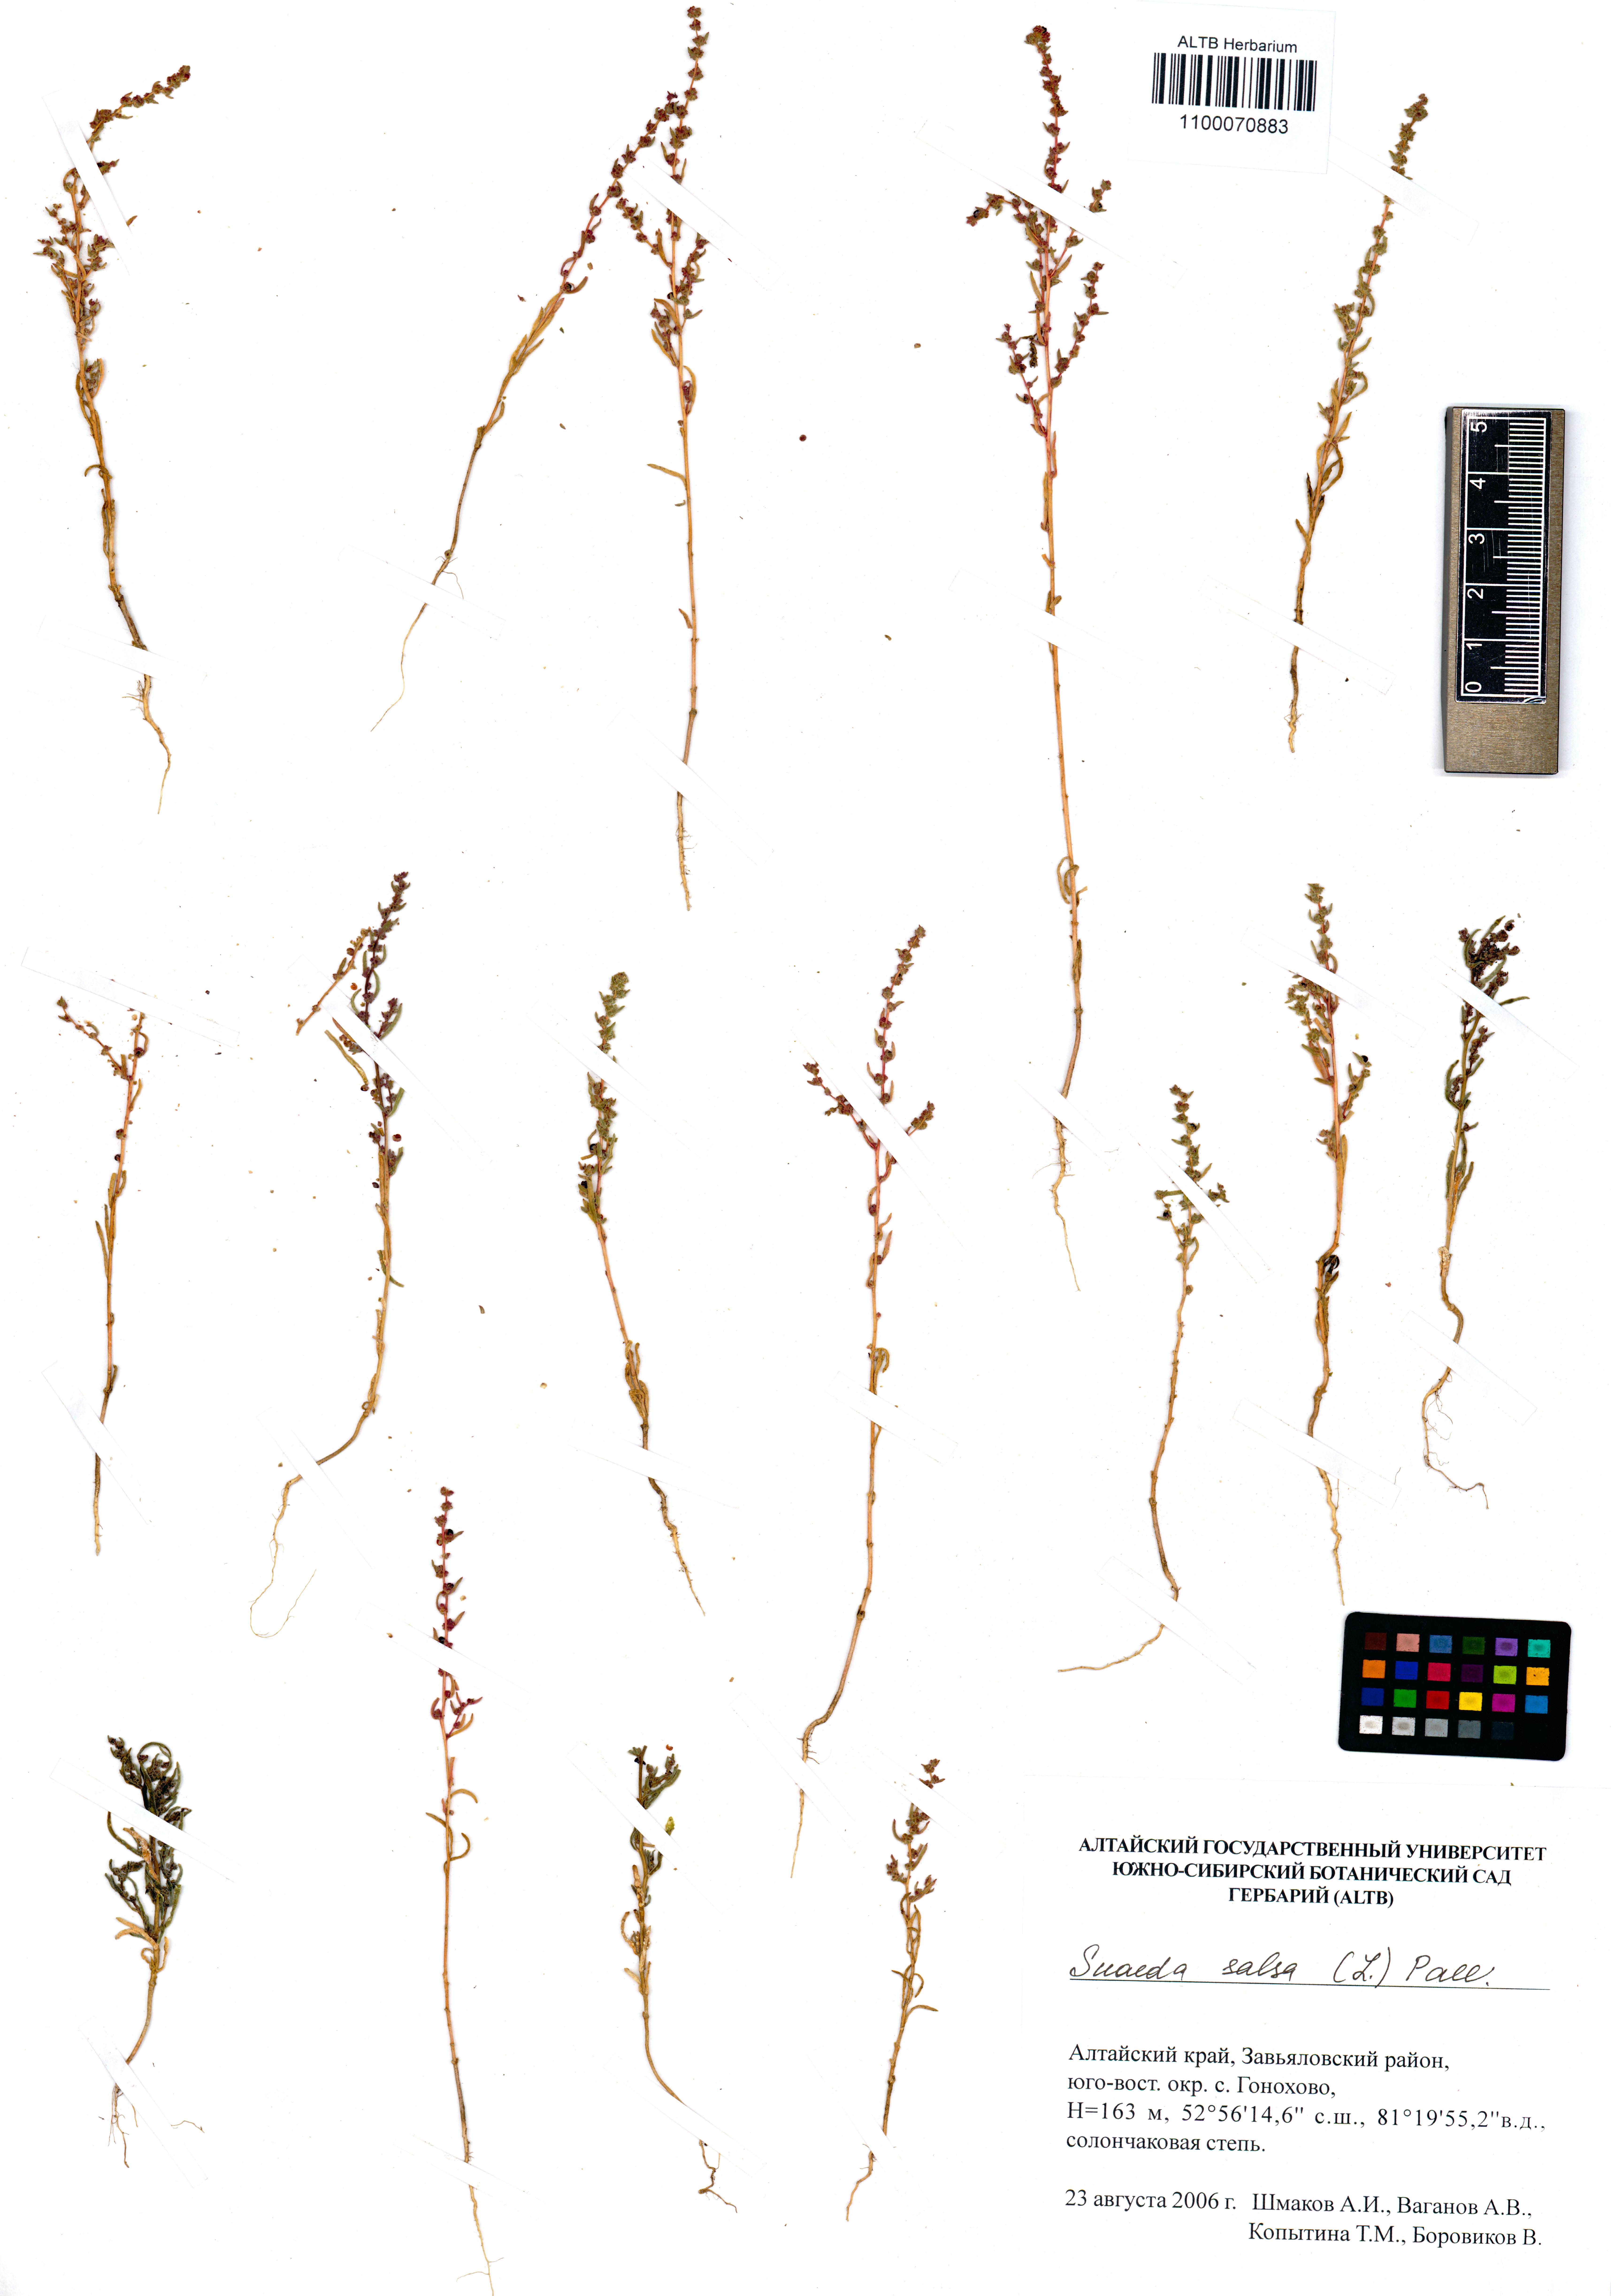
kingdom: Plantae
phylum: Tracheophyta
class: Magnoliopsida
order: Caryophyllales
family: Amaranthaceae
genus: Suaeda
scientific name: Suaeda salsa
